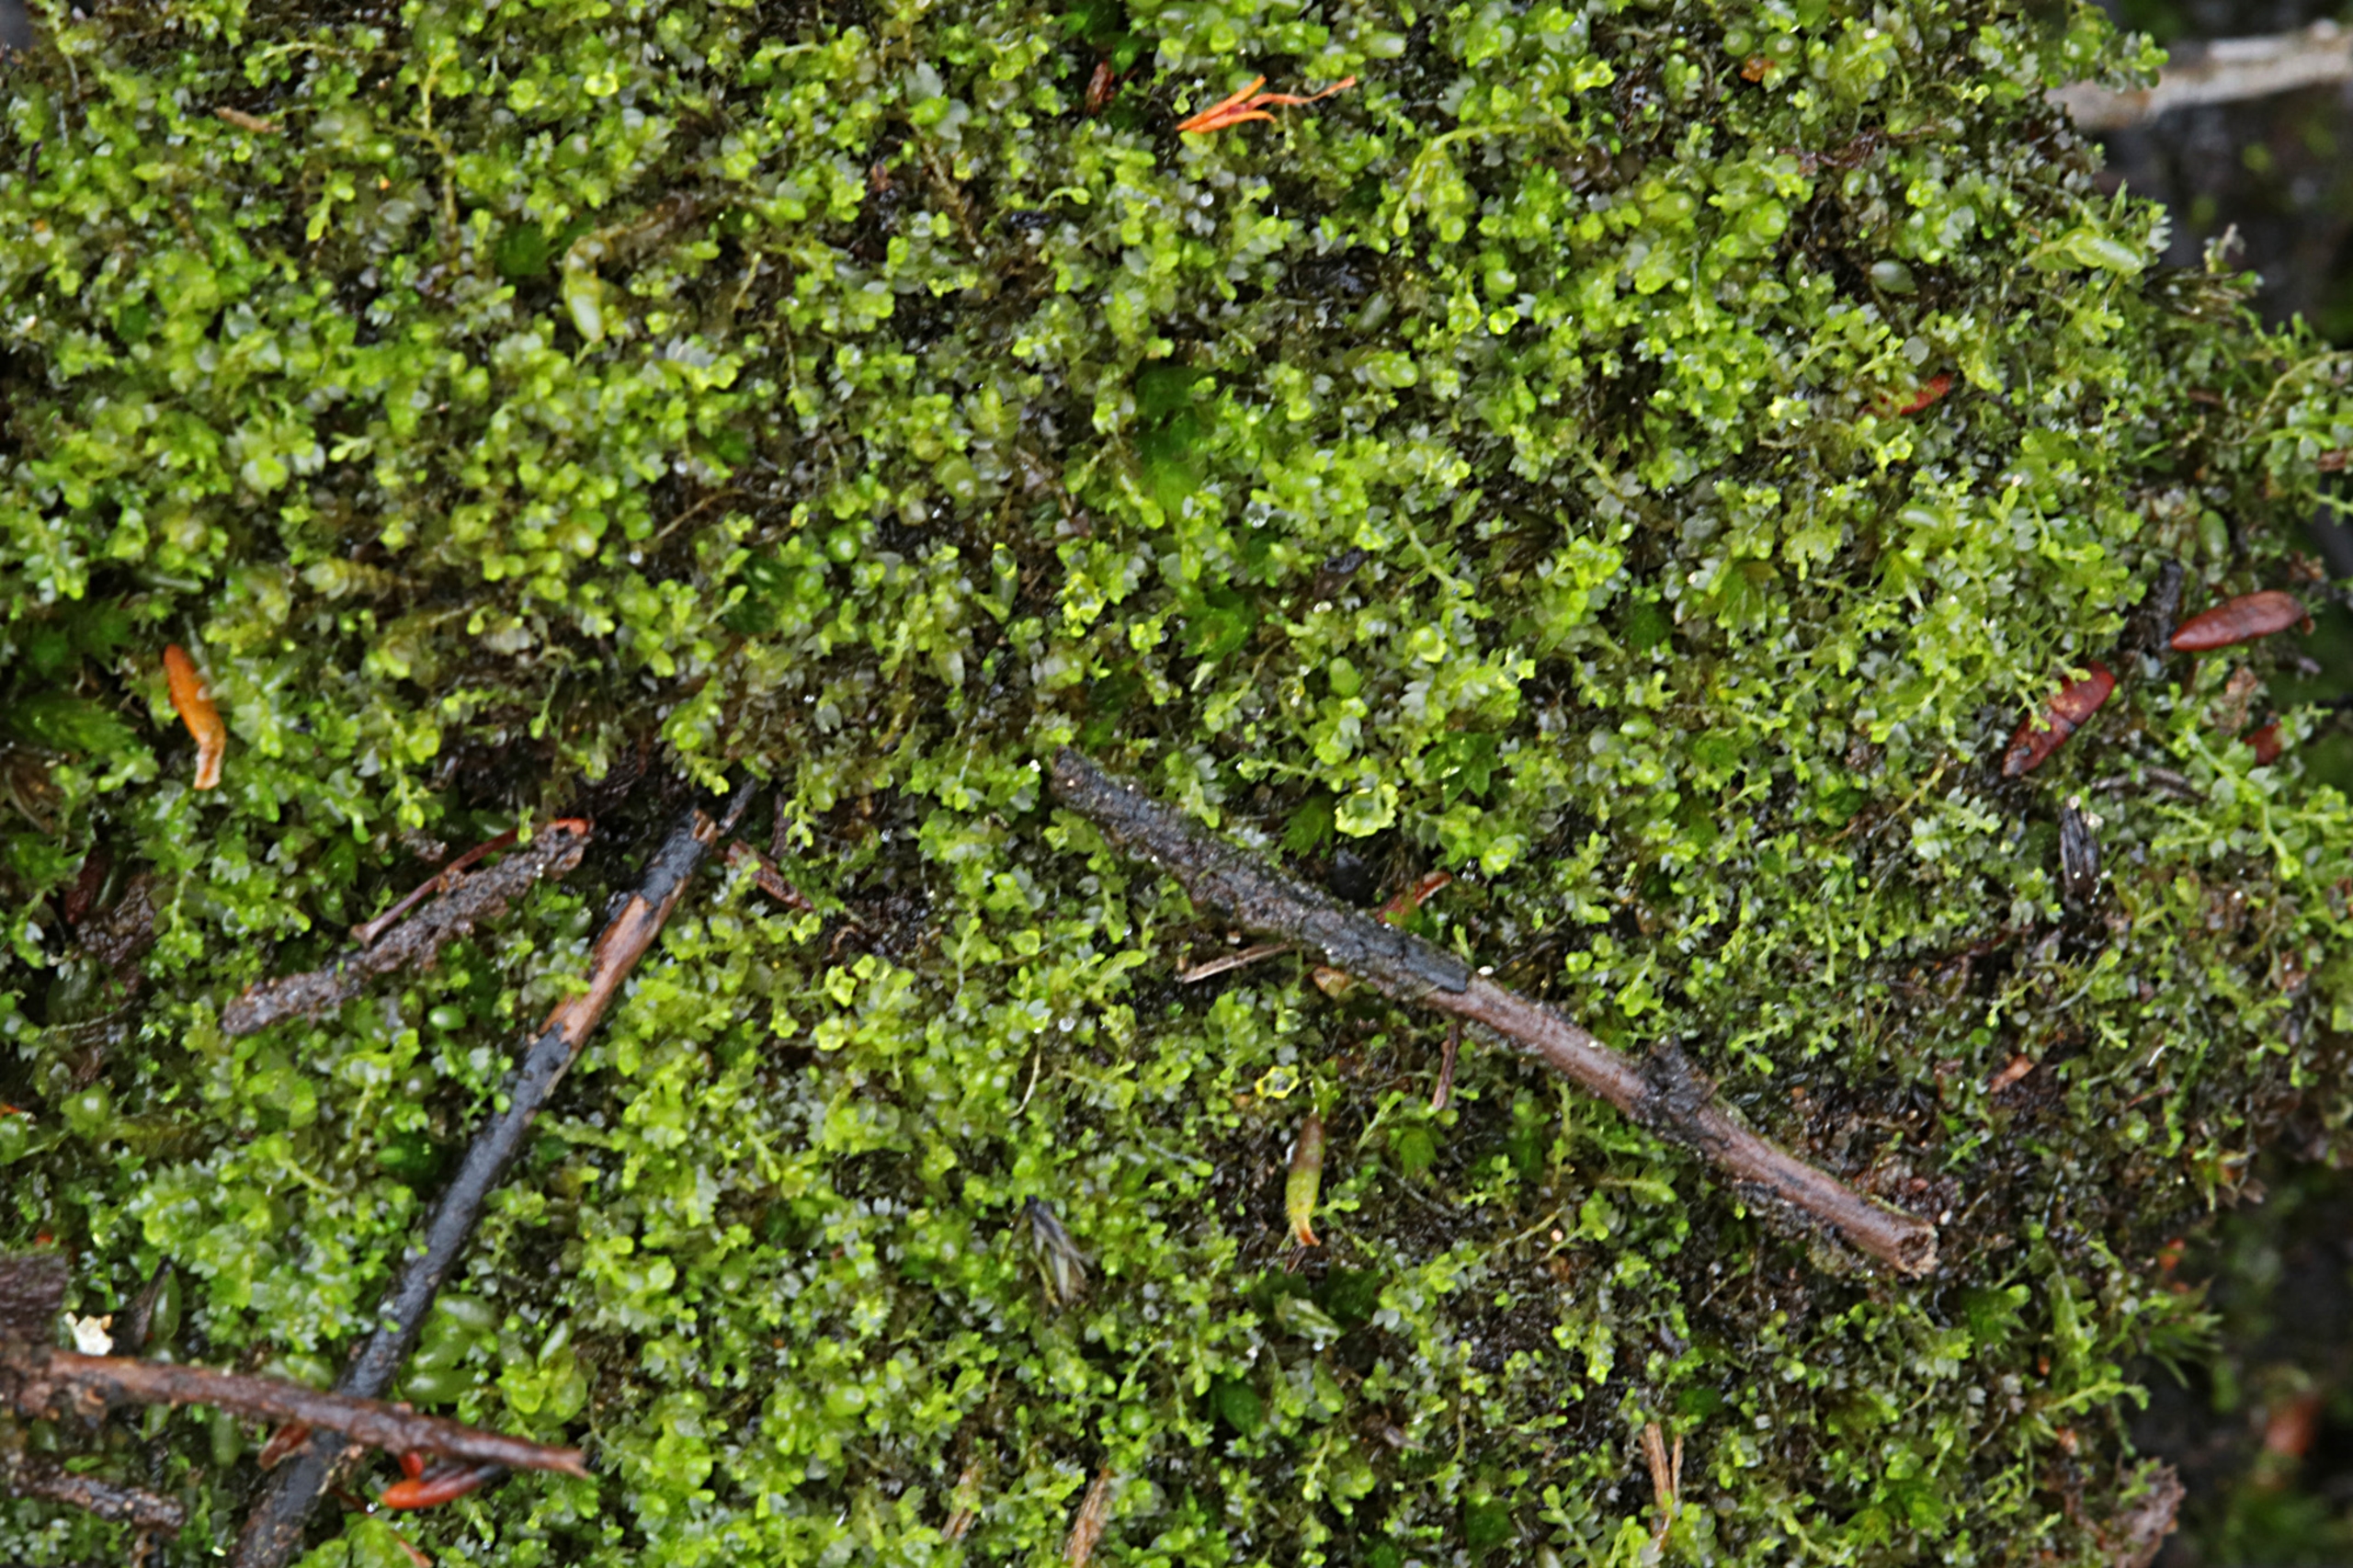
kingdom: Plantae
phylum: Marchantiophyta
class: Jungermanniopsida
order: Jungermanniales
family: Anastrophyllaceae
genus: Gymnocolea
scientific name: Gymnocolea inflata
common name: Opblæst blæremos
